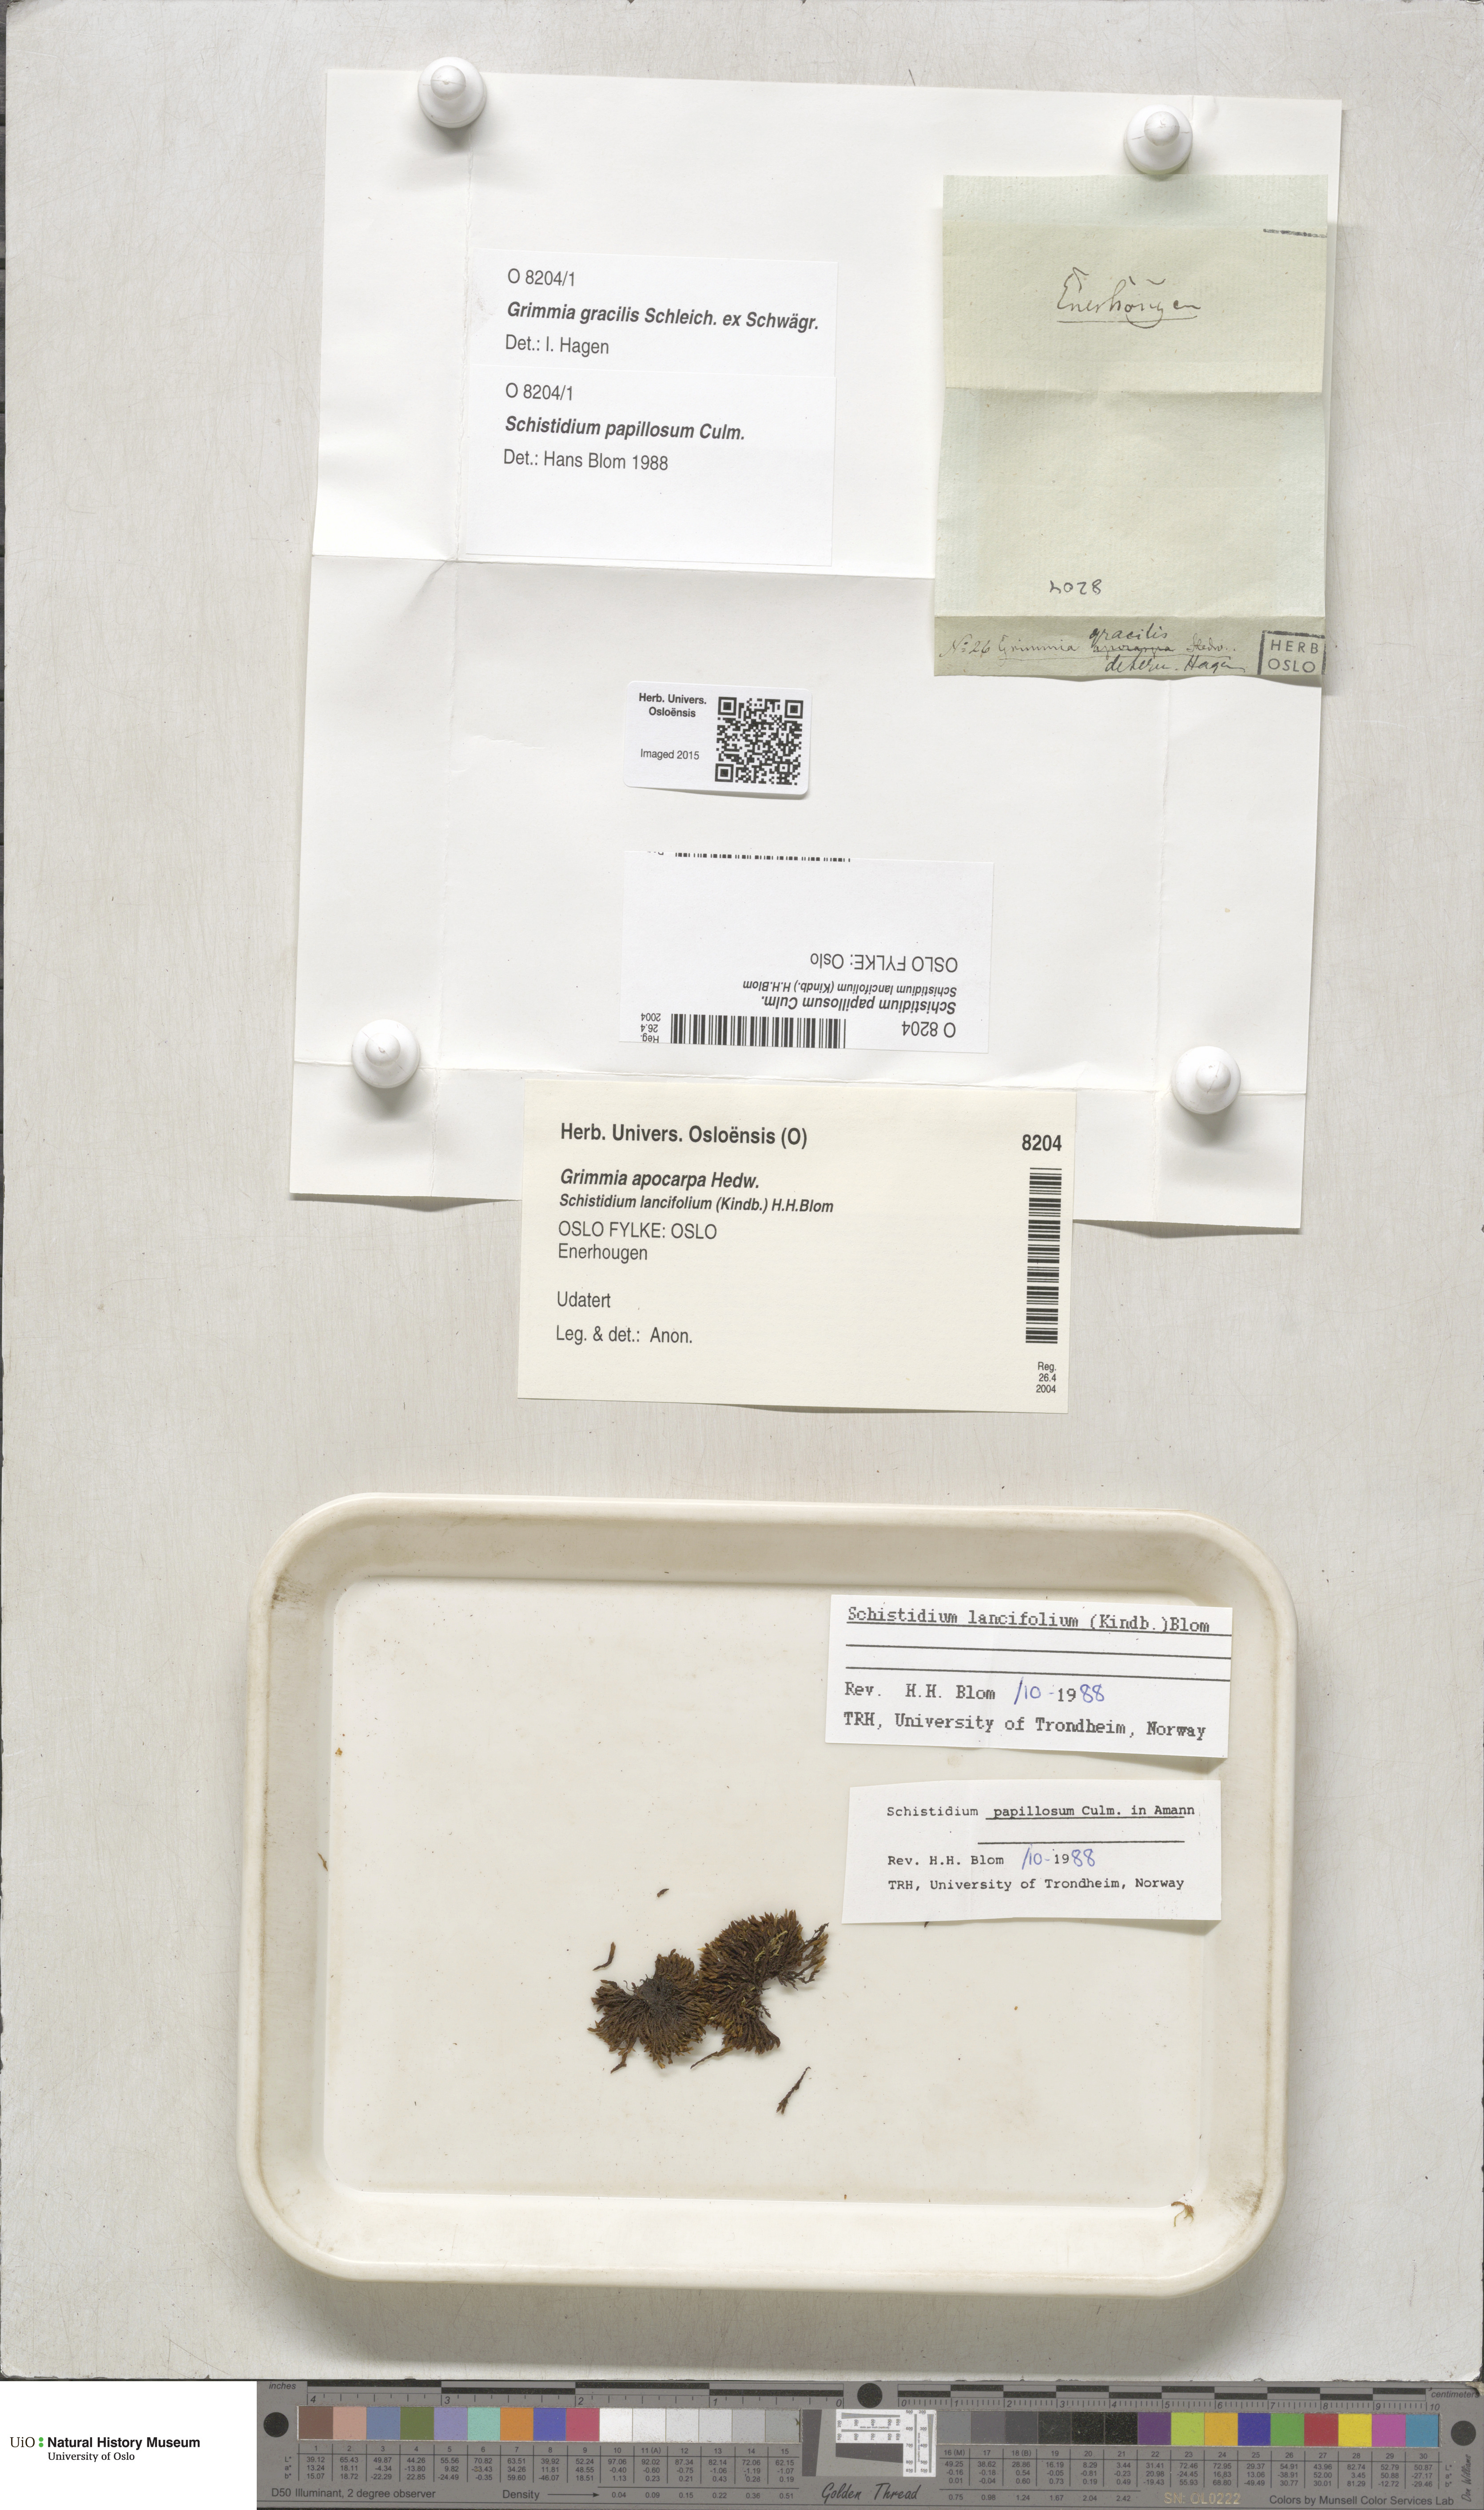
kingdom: Plantae
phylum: Bryophyta
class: Bryopsida
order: Grimmiales
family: Grimmiaceae
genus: Schistidium
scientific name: Schistidium papillosum
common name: Papillose bloom moss
